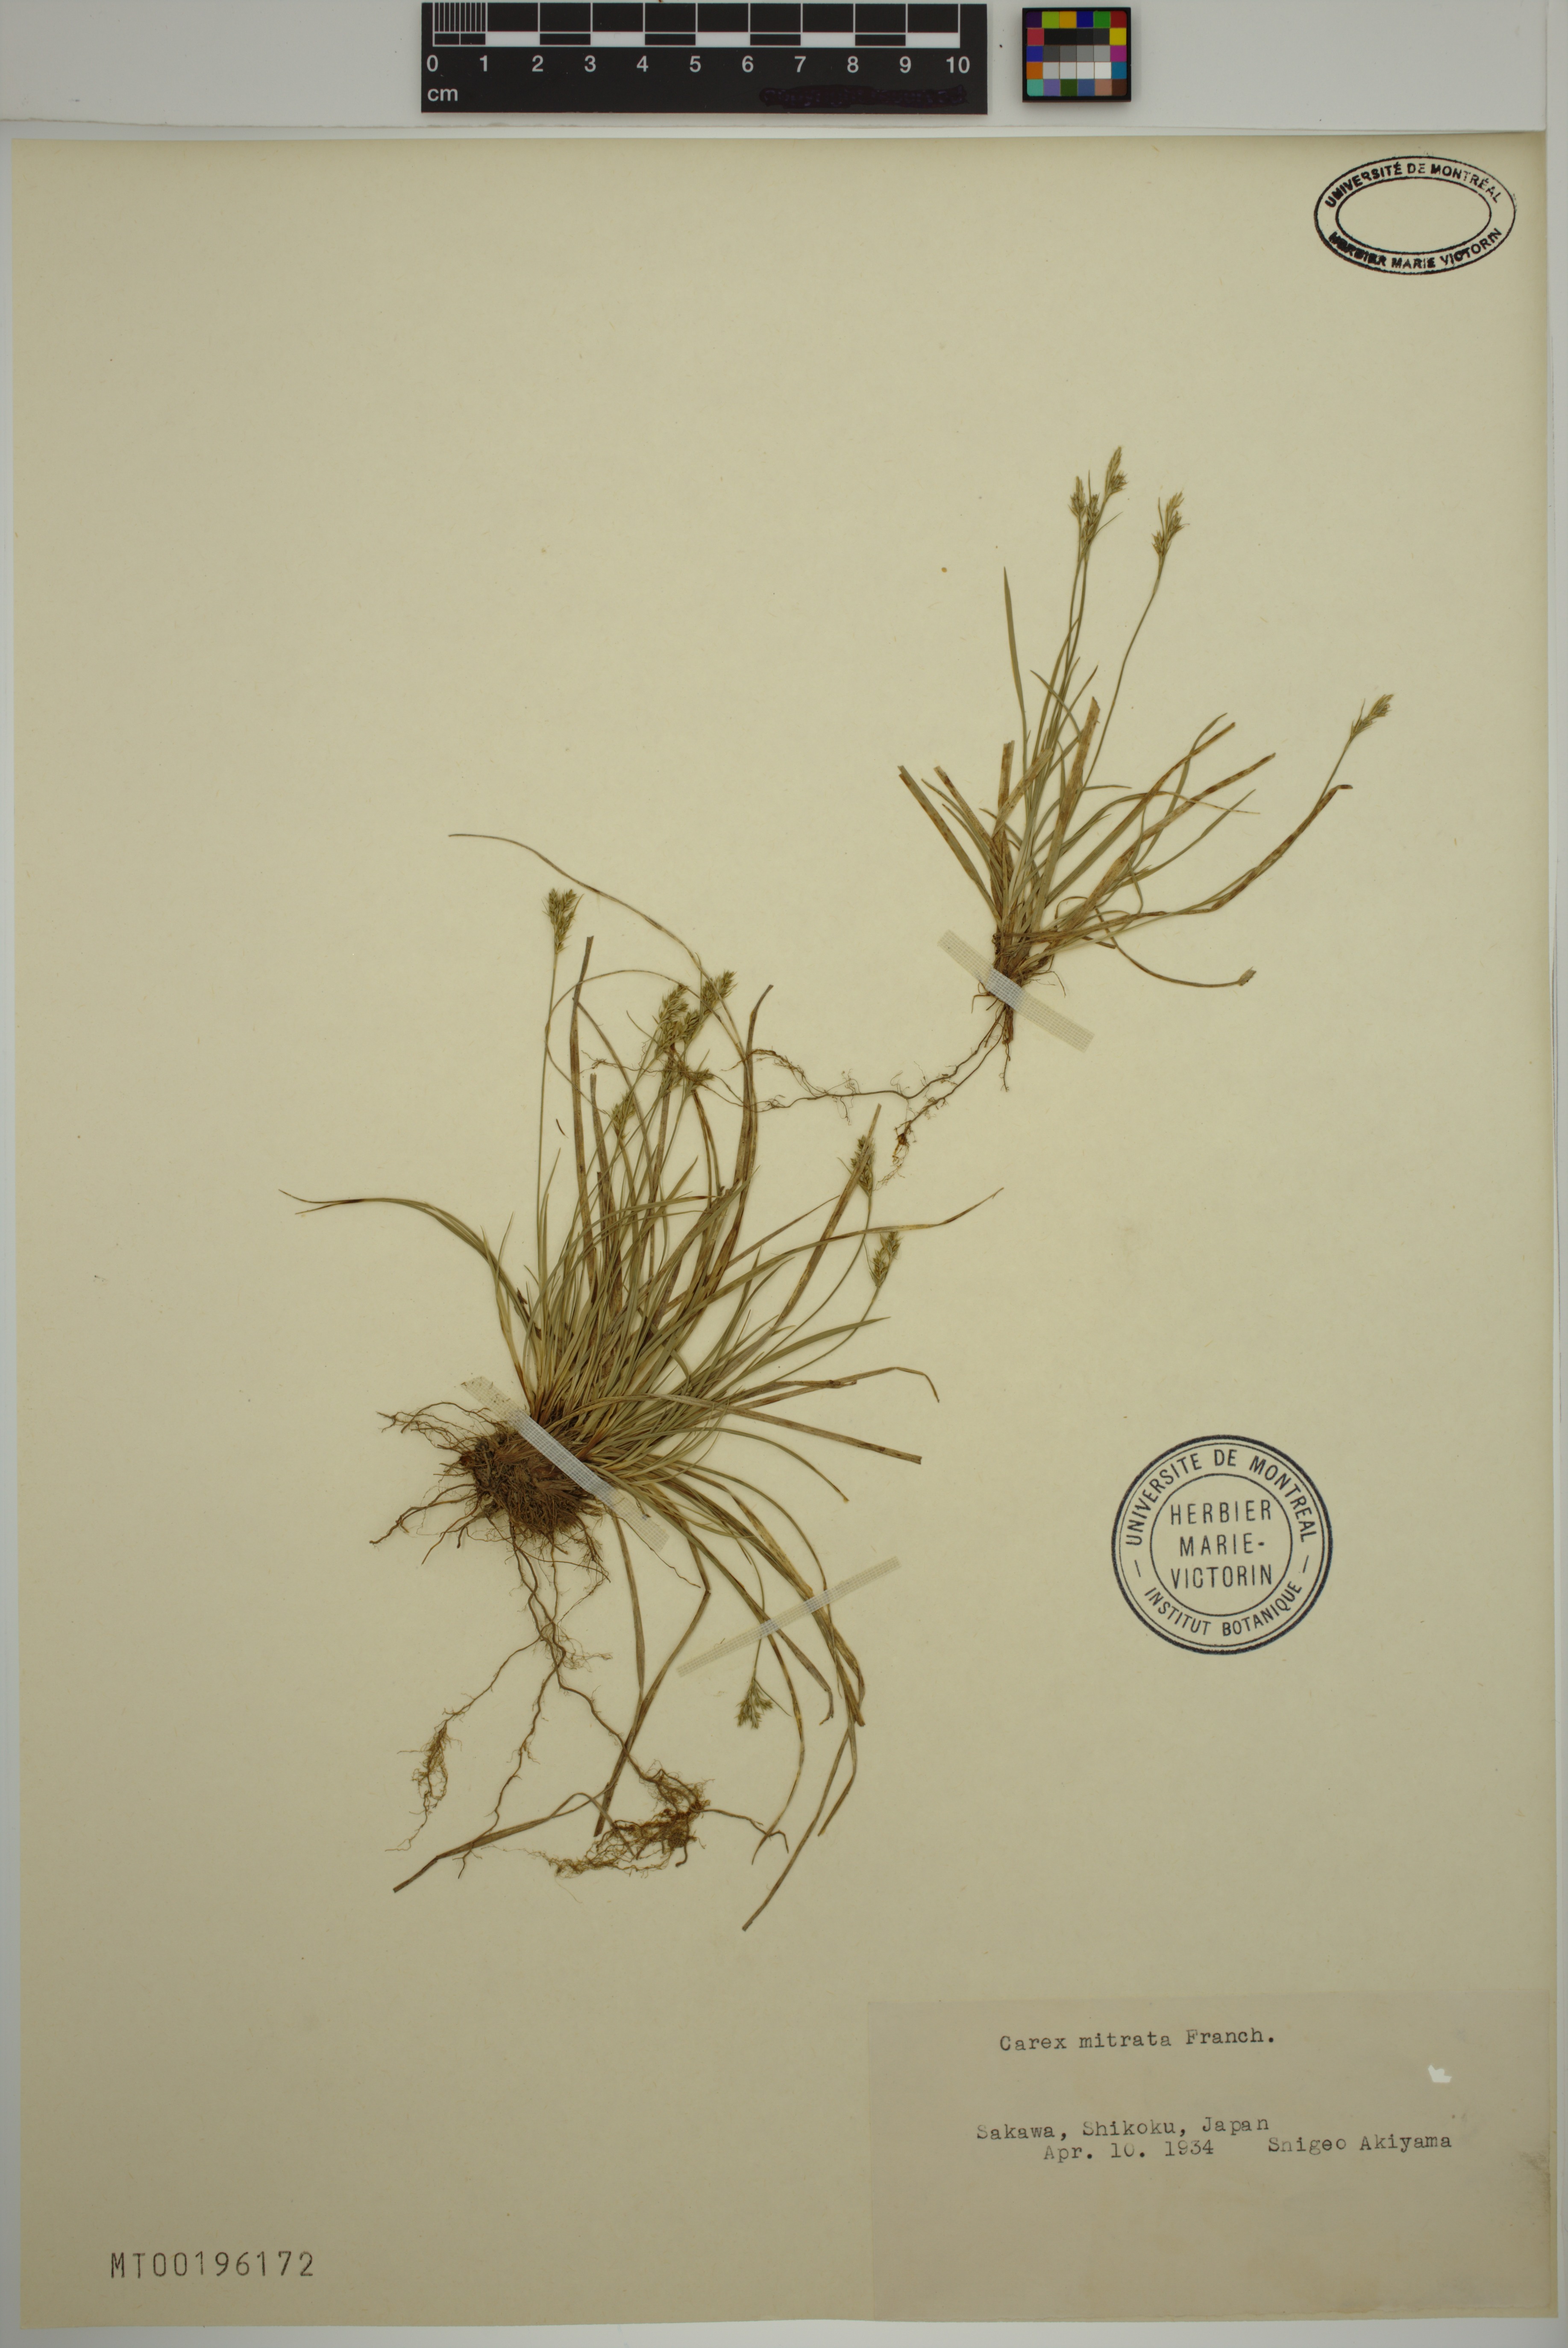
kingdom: Plantae
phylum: Tracheophyta
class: Liliopsida
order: Poales
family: Cyperaceae
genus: Carex
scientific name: Carex mitrata
